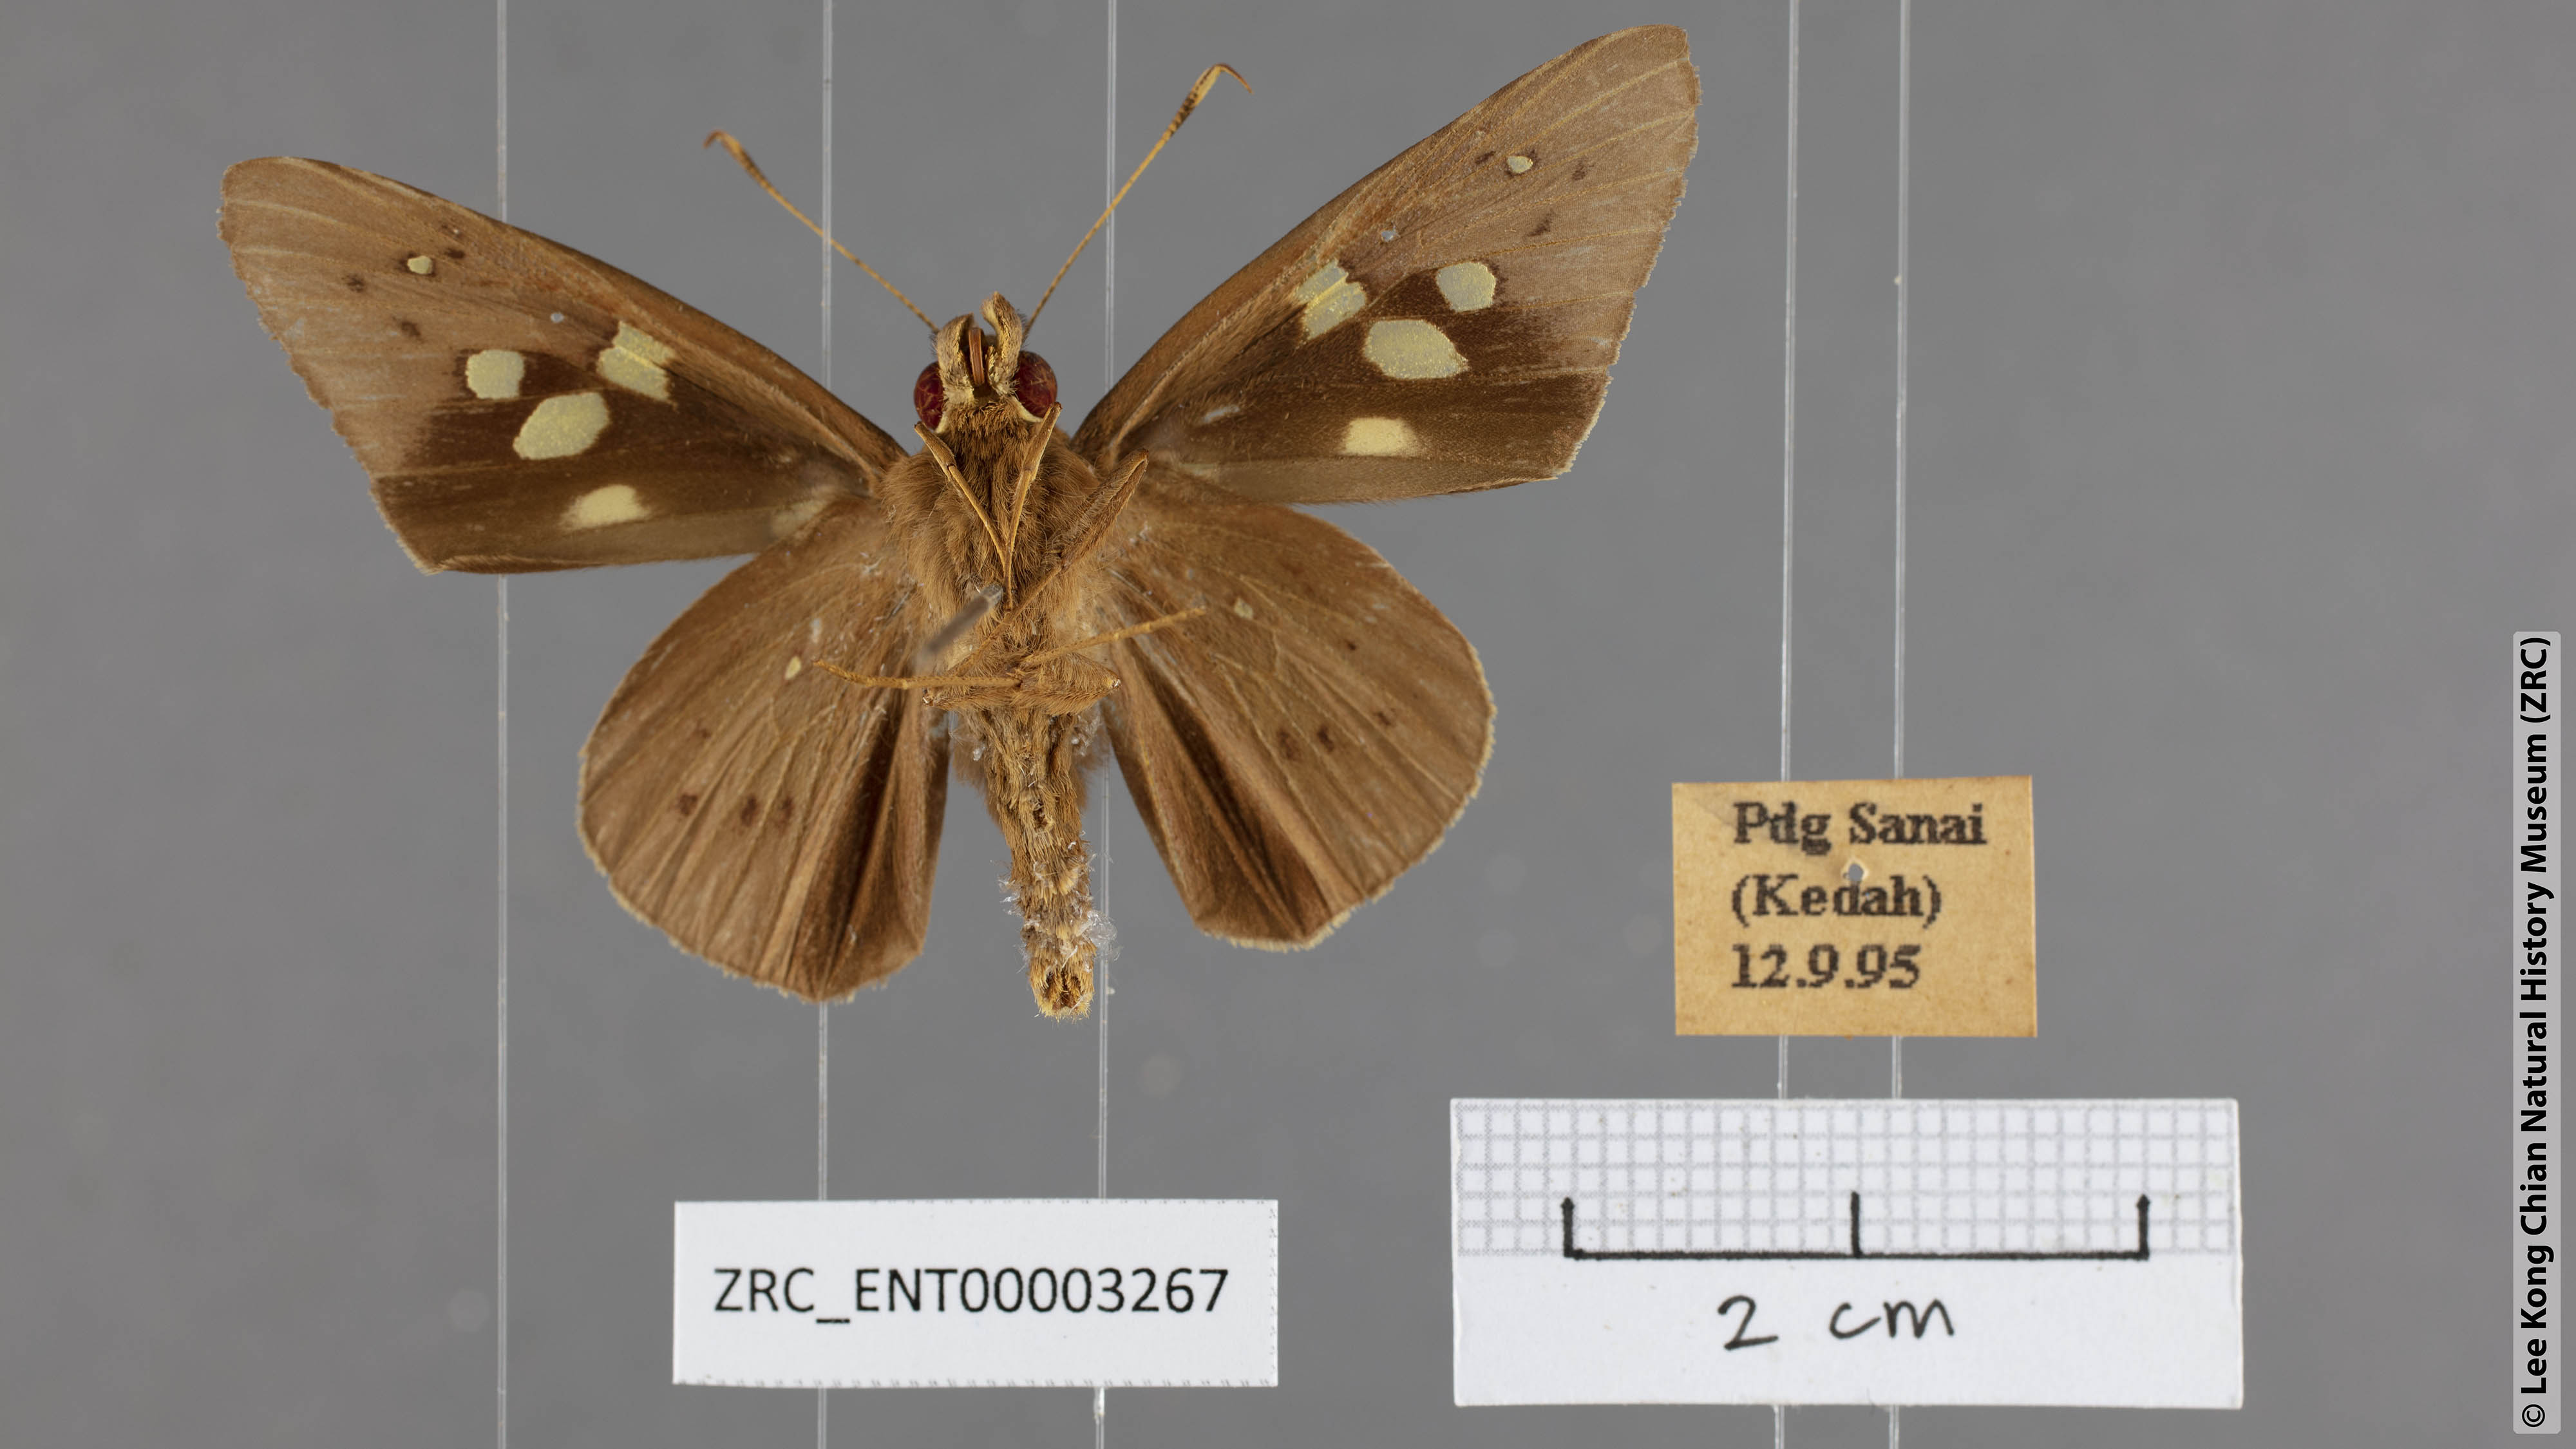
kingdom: Animalia
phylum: Arthropoda
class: Insecta
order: Lepidoptera
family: Hesperiidae
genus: Hidari
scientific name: Hidari irava
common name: Coconut skipper
